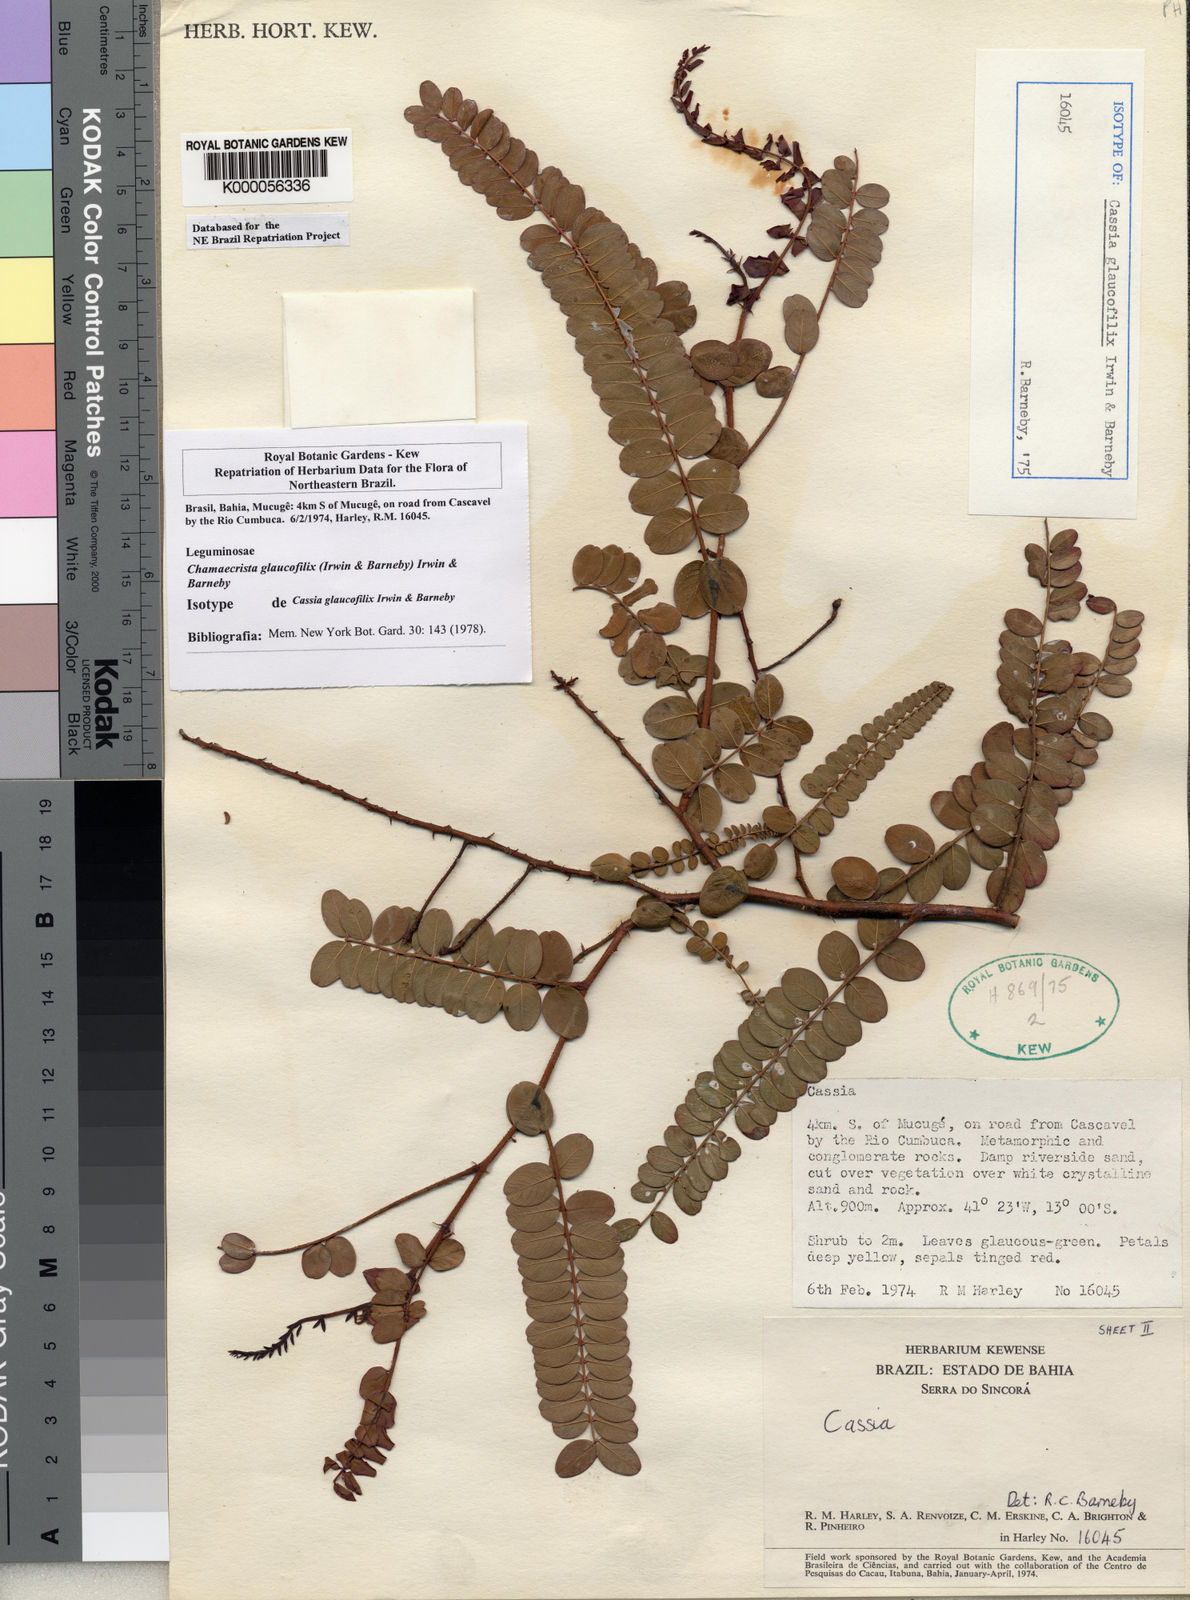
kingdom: Plantae
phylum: Tracheophyta
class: Magnoliopsida
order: Fabales
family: Fabaceae
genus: Chamaecrista
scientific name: Chamaecrista glaucofilix
